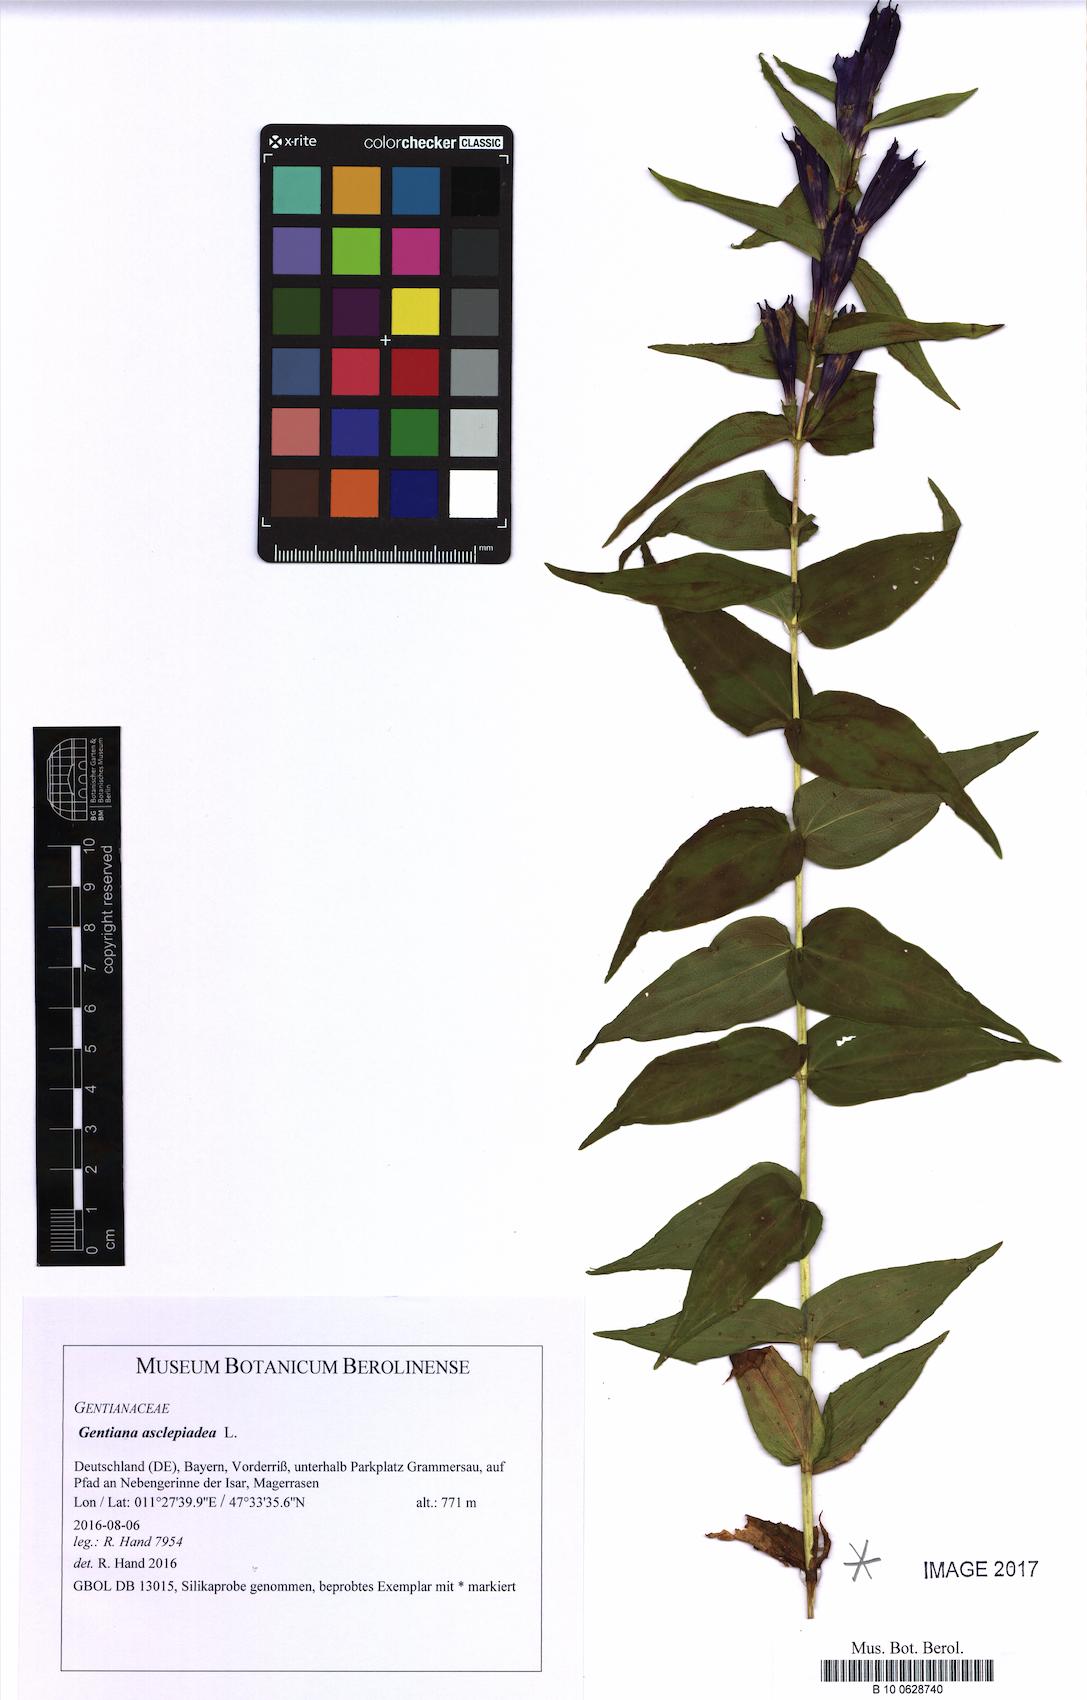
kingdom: Plantae
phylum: Tracheophyta
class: Magnoliopsida
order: Gentianales
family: Gentianaceae
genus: Gentiana
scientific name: Gentiana asclepiadea
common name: Willow gentian
